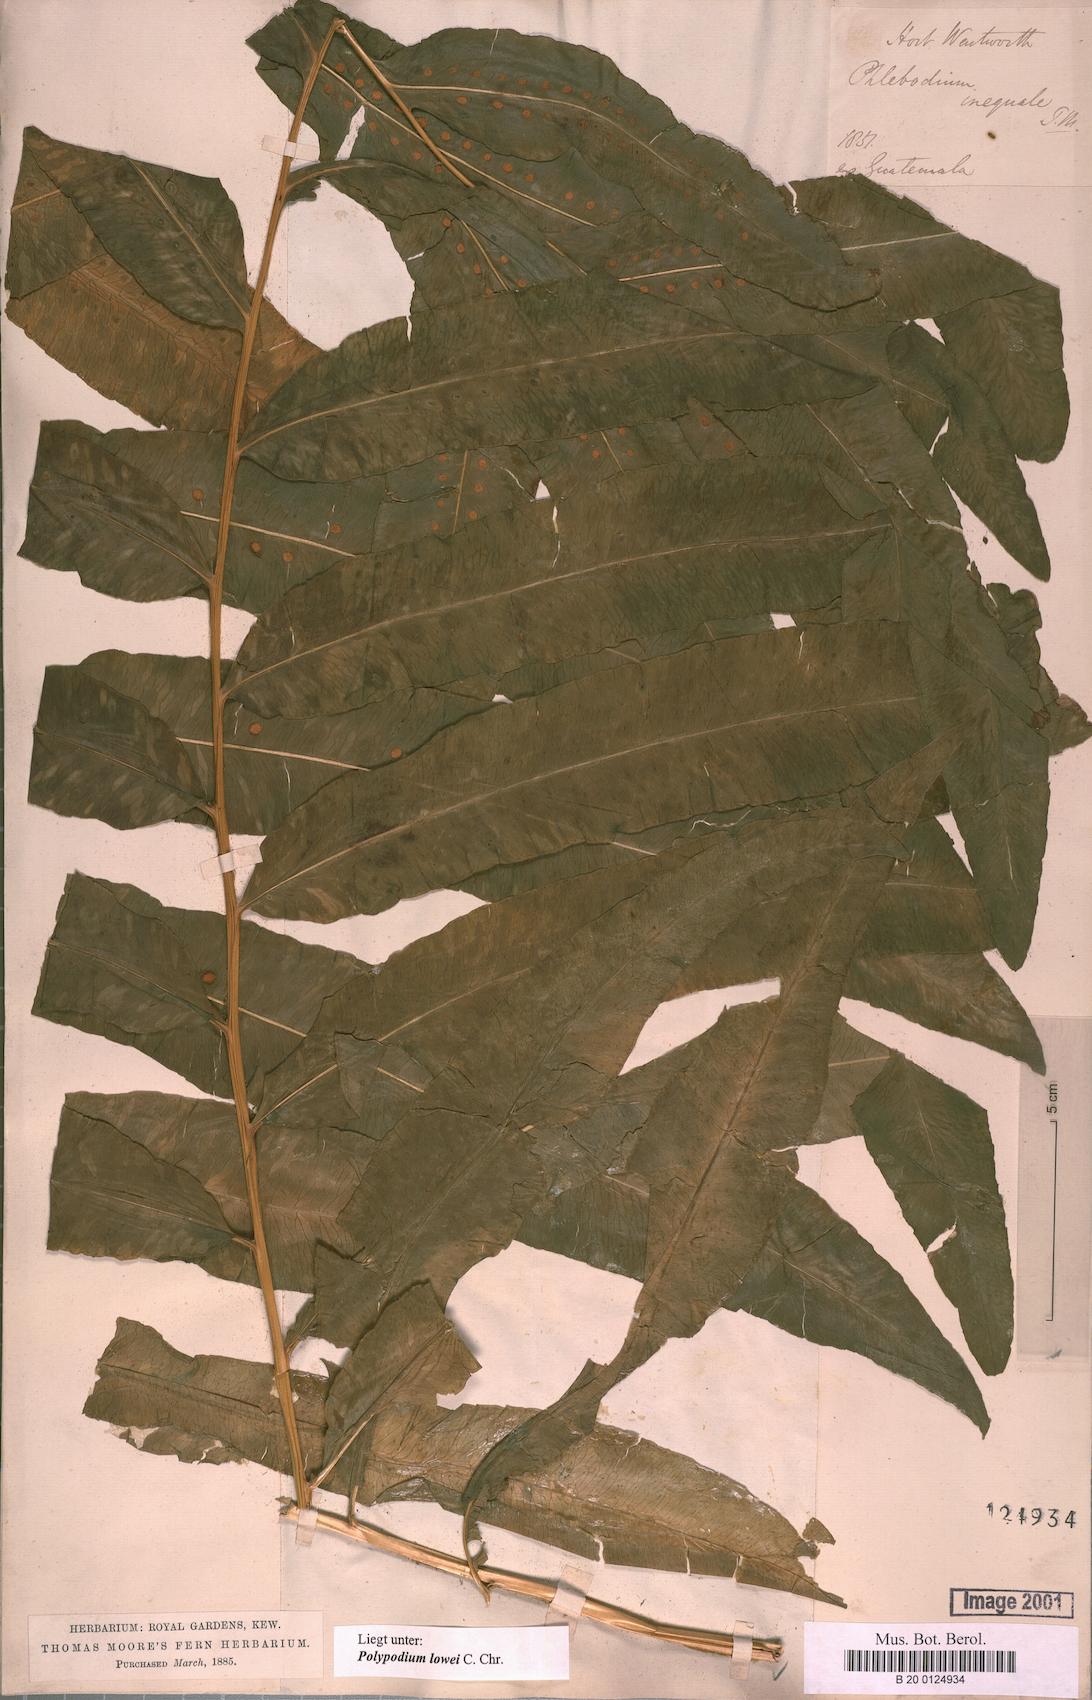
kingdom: Plantae
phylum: Tracheophyta
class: Polypodiopsida
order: Polypodiales
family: Polypodiaceae
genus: Polypodium
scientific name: Polypodium pleurosorum
